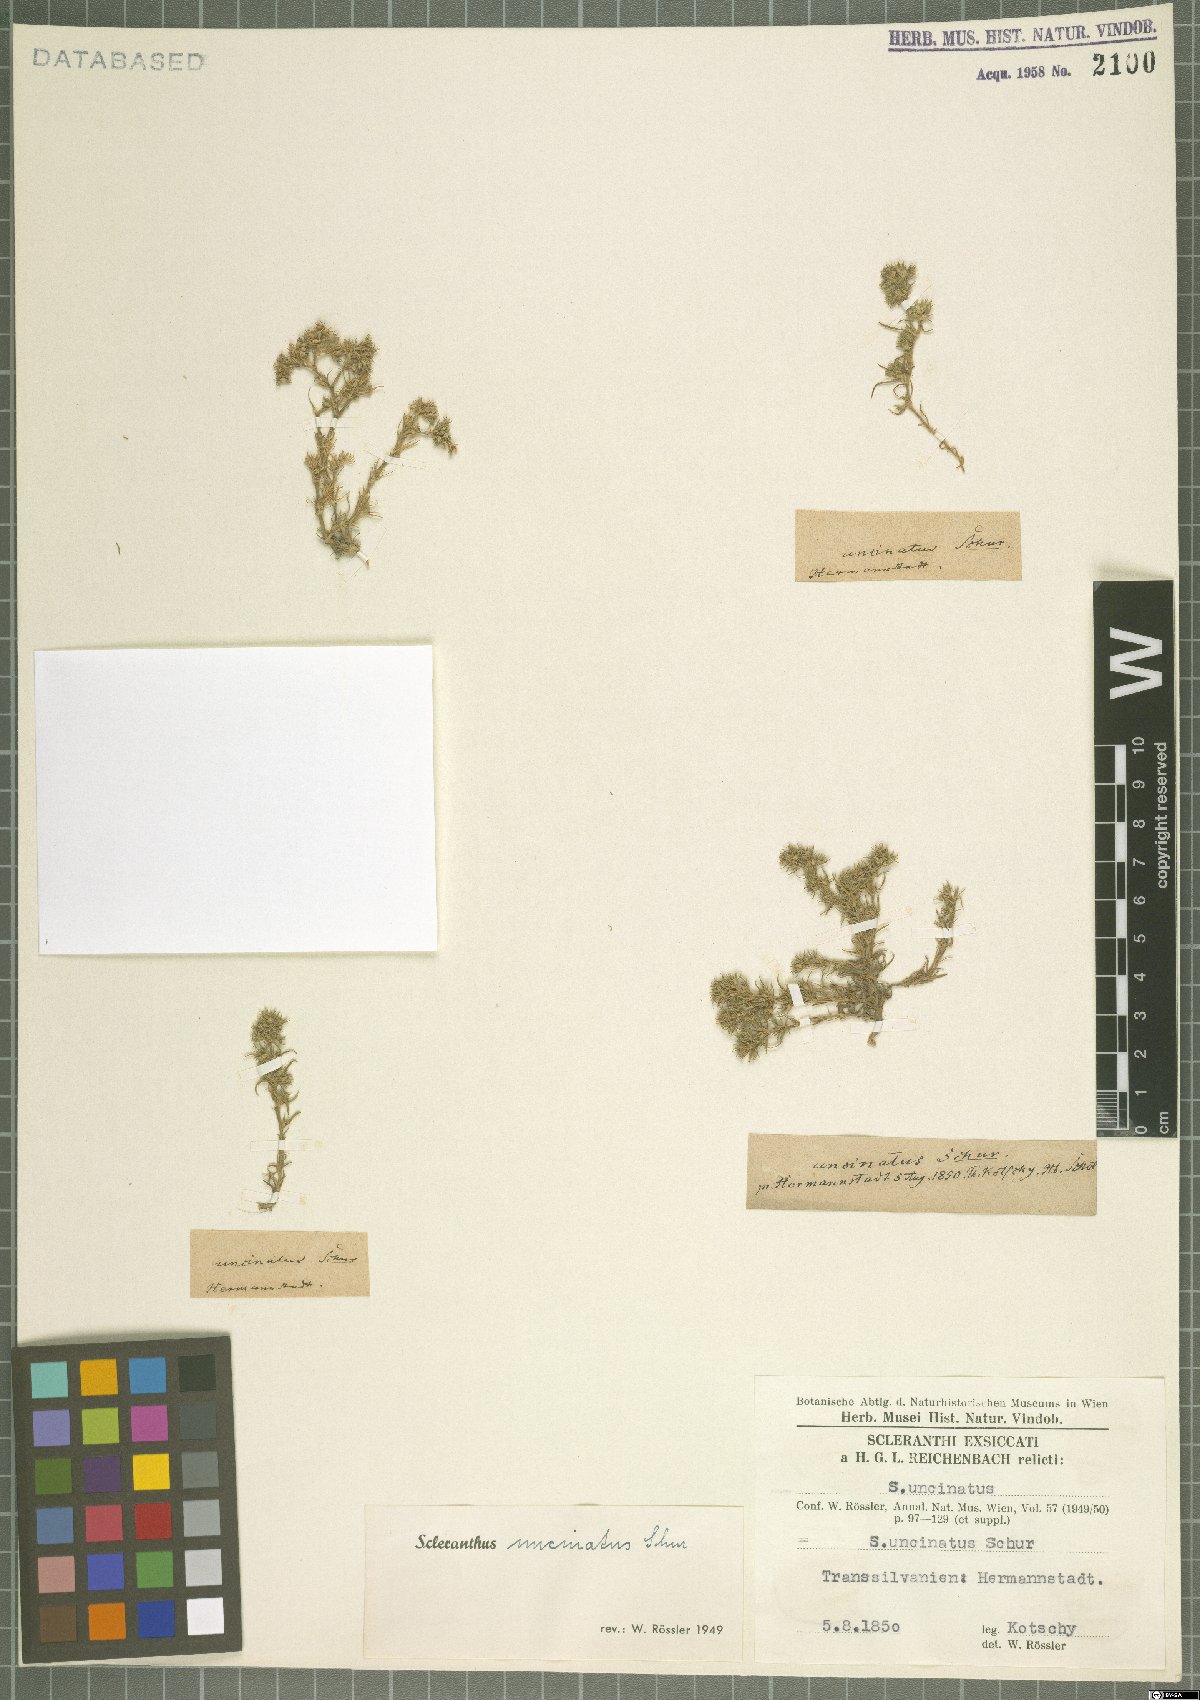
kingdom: Plantae
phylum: Tracheophyta
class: Magnoliopsida
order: Caryophyllales
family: Caryophyllaceae
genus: Scleranthus
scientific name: Scleranthus uncinatus
